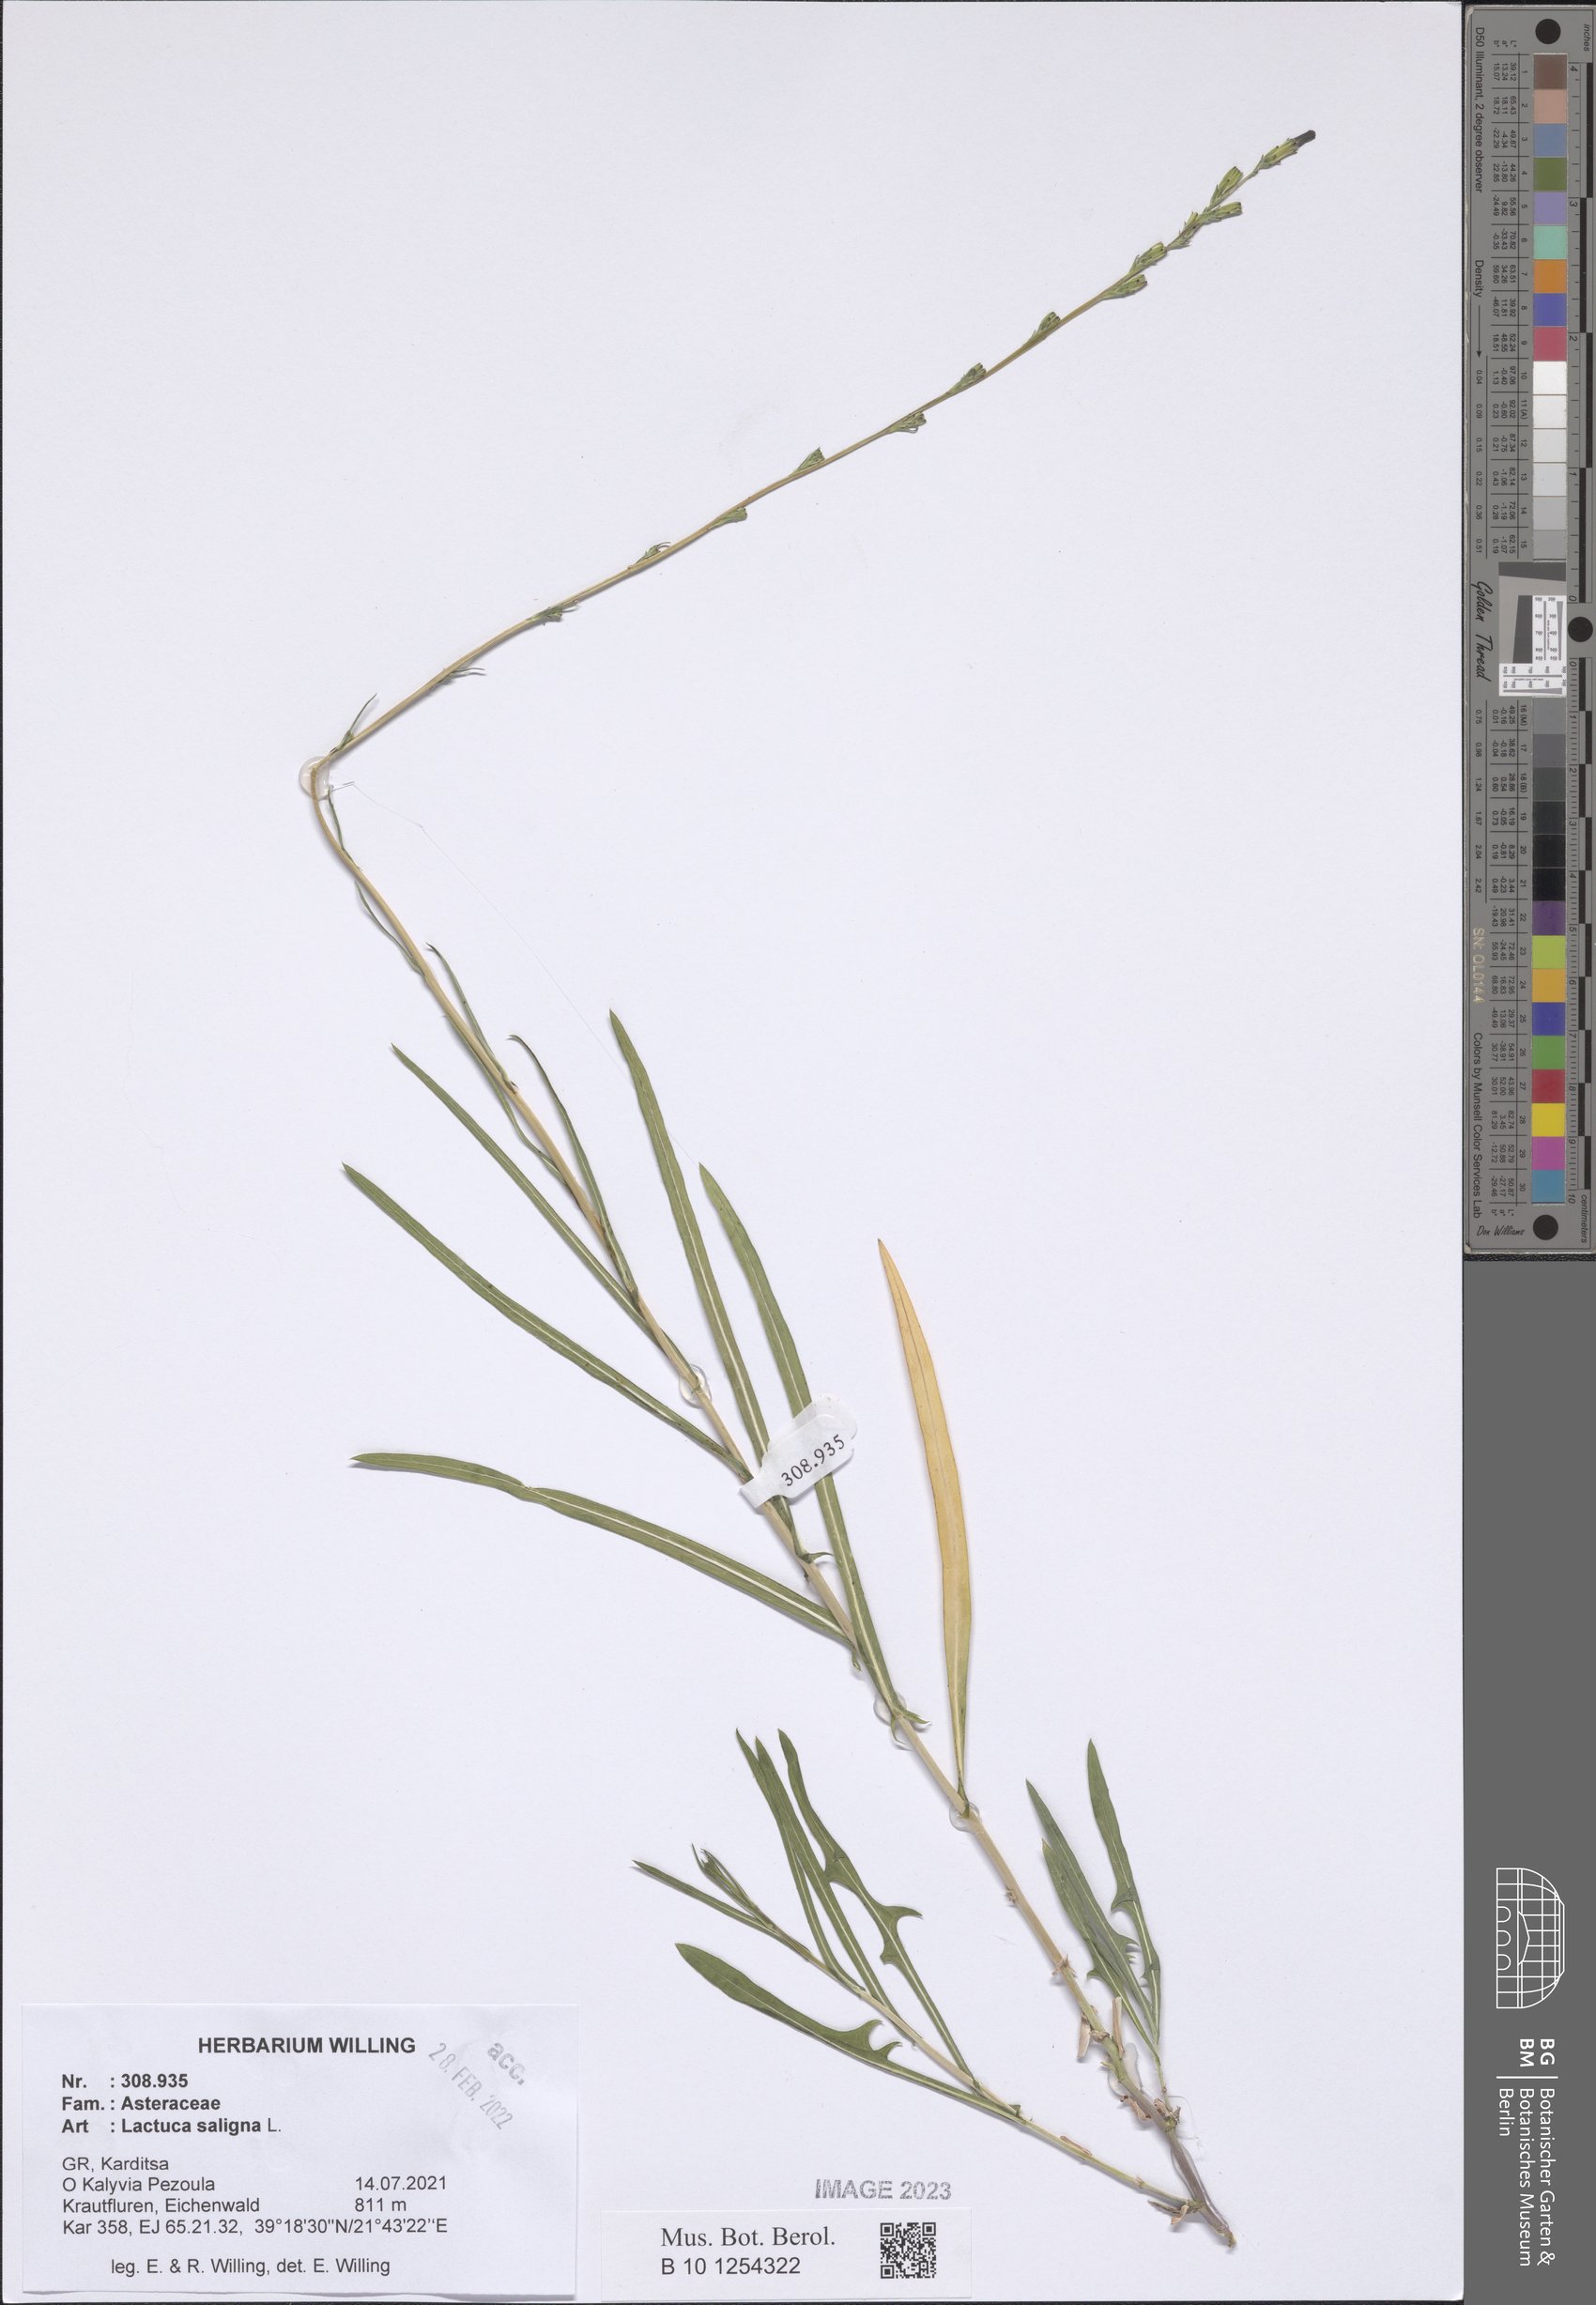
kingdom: Plantae
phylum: Tracheophyta
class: Magnoliopsida
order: Asterales
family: Asteraceae
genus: Lactuca
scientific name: Lactuca saligna
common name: Wild lettuce
